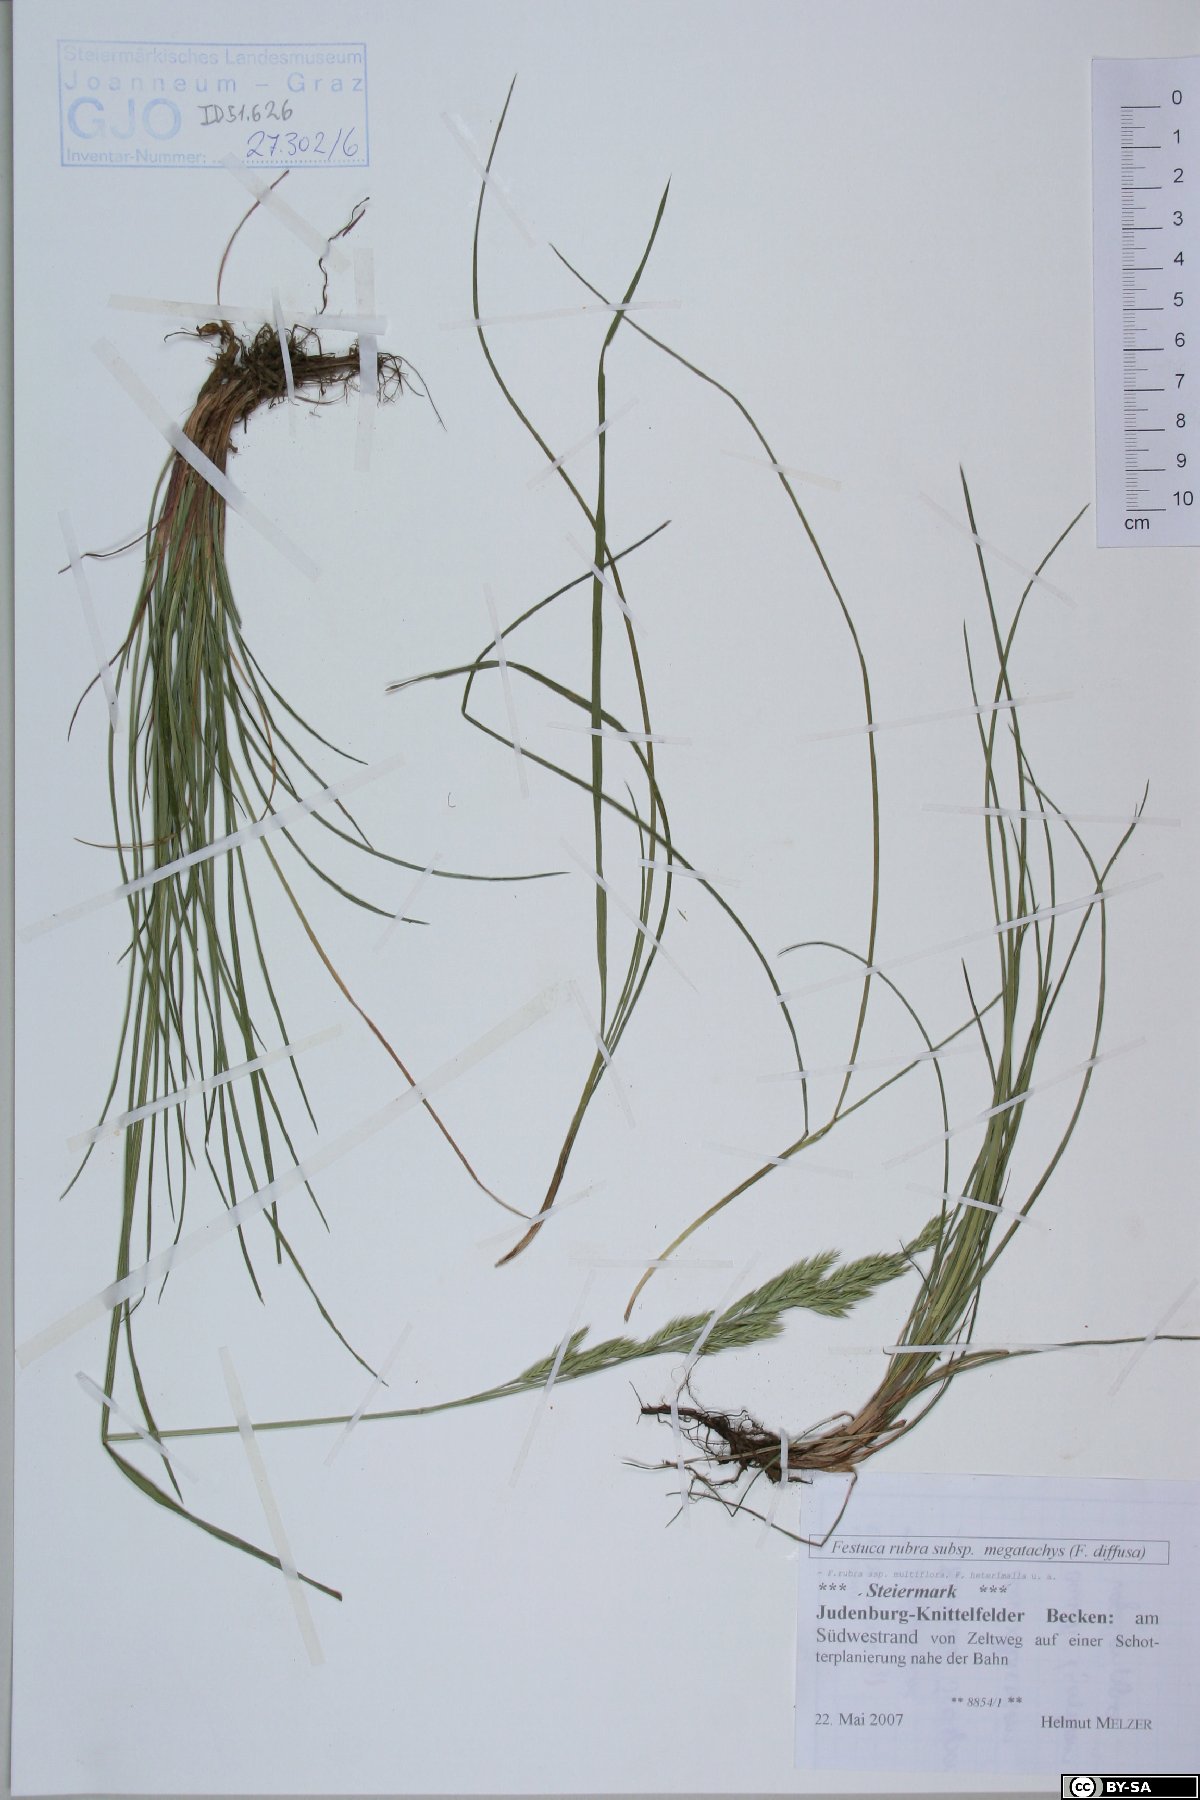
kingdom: Plantae
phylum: Tracheophyta
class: Liliopsida
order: Poales
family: Poaceae
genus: Festuca
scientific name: Festuca rubra
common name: Red fescue
